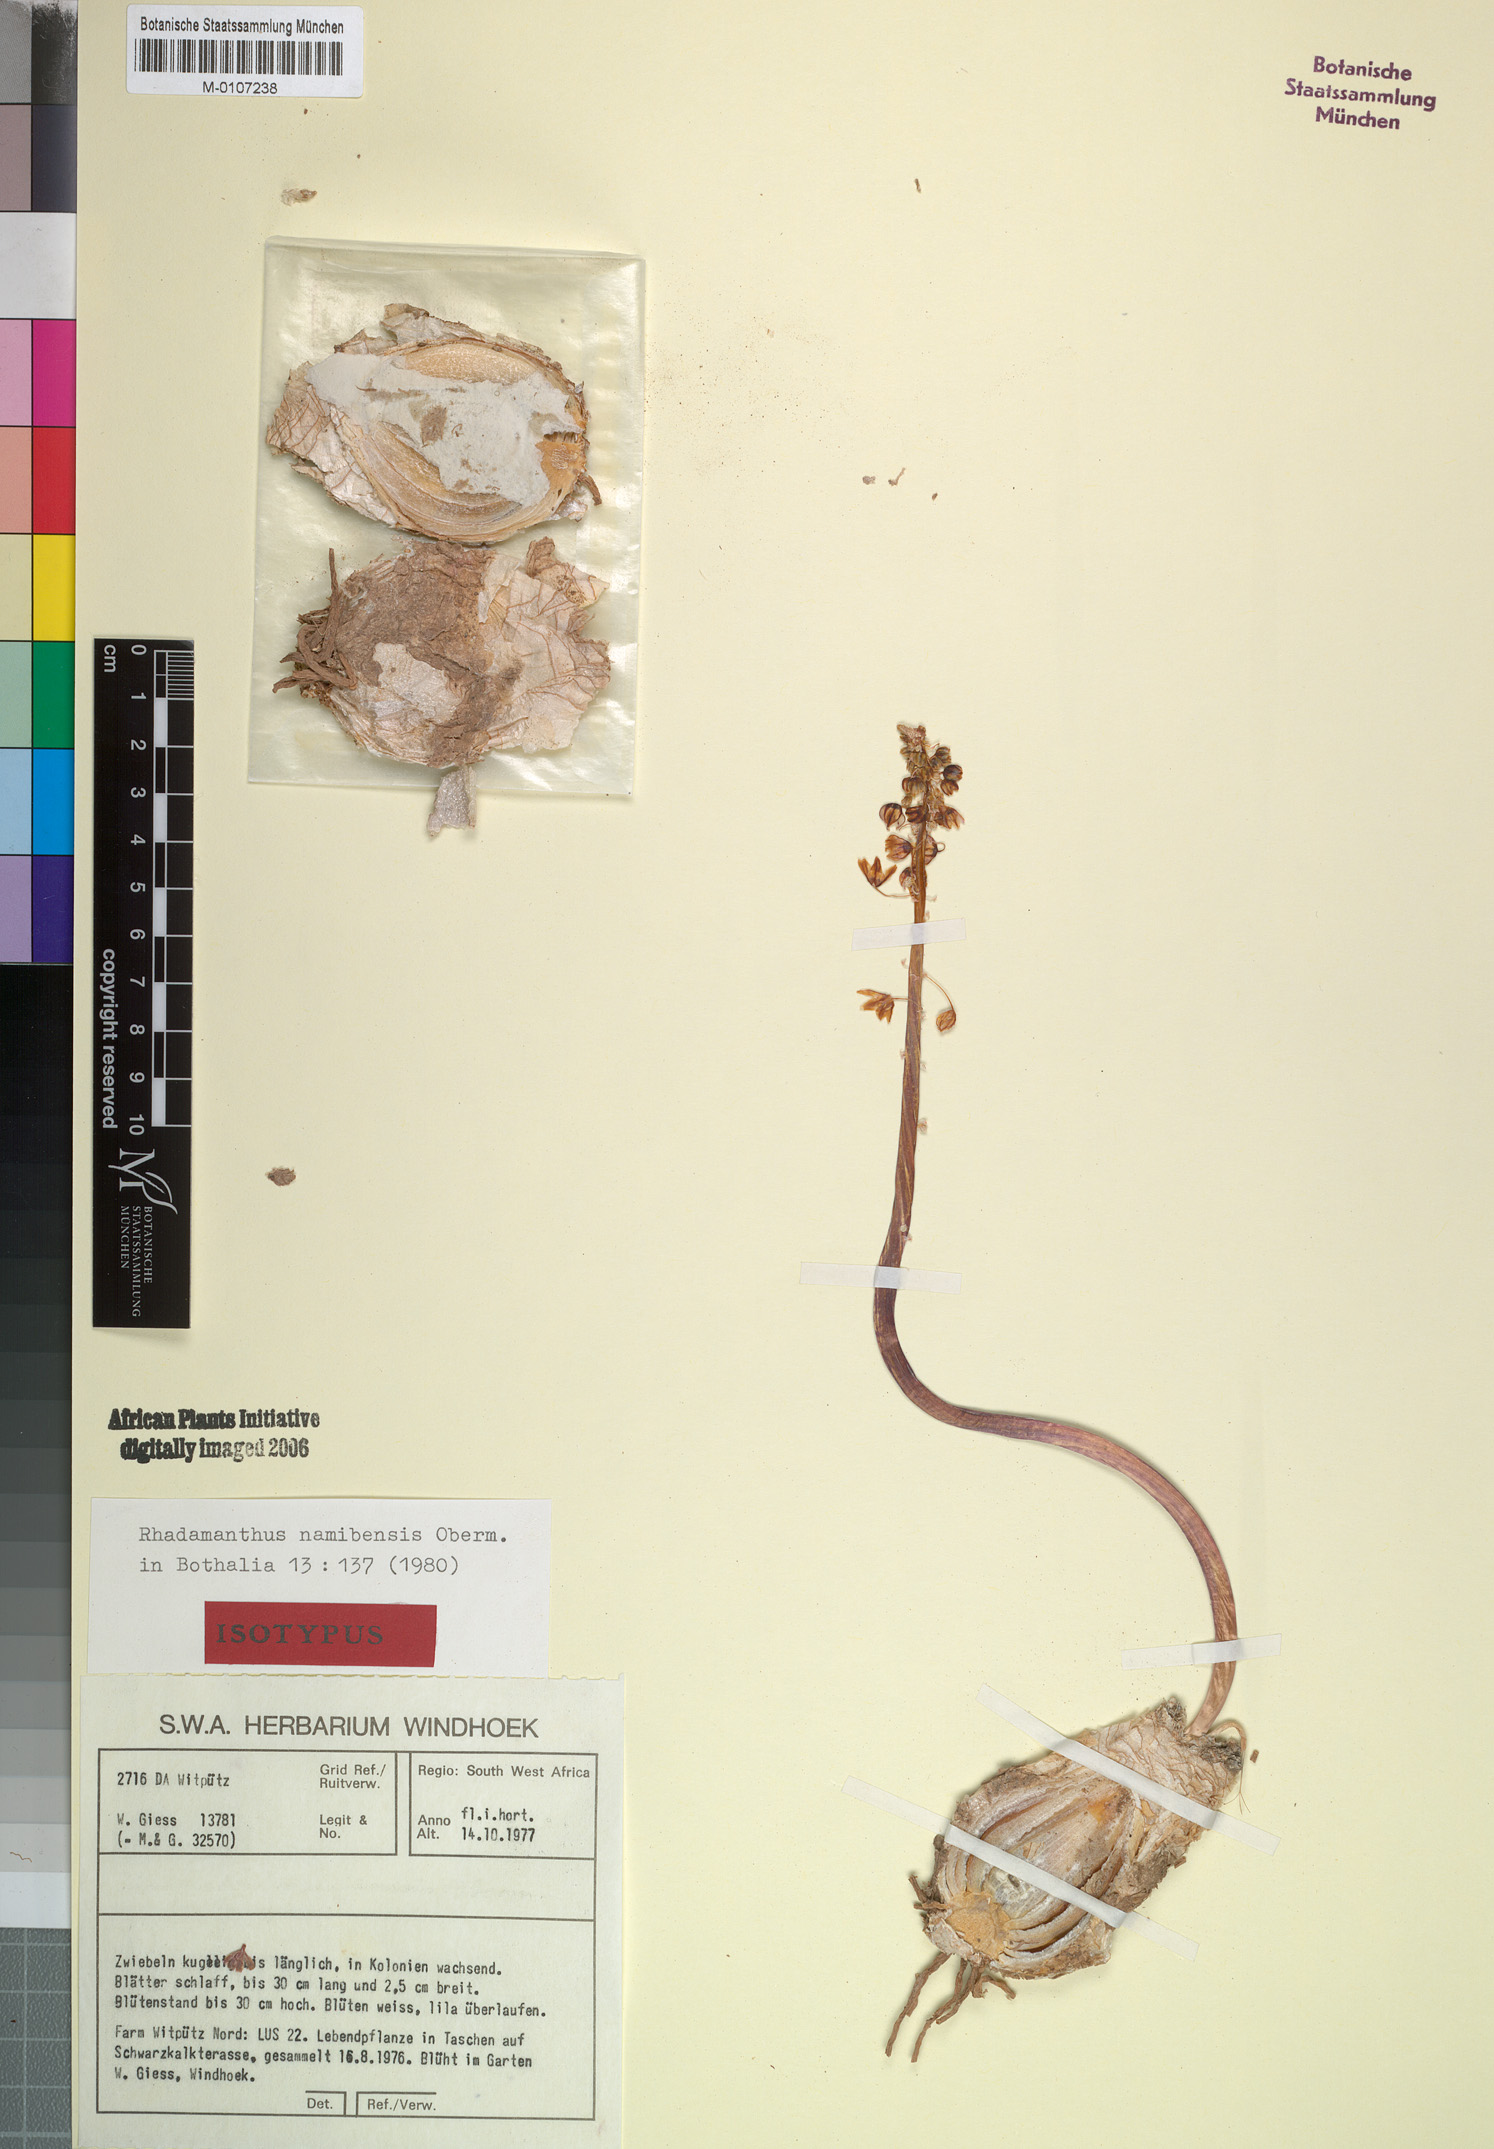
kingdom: Plantae
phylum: Tracheophyta
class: Liliopsida
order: Asparagales
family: Asparagaceae
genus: Drimia
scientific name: Drimia namibensis
